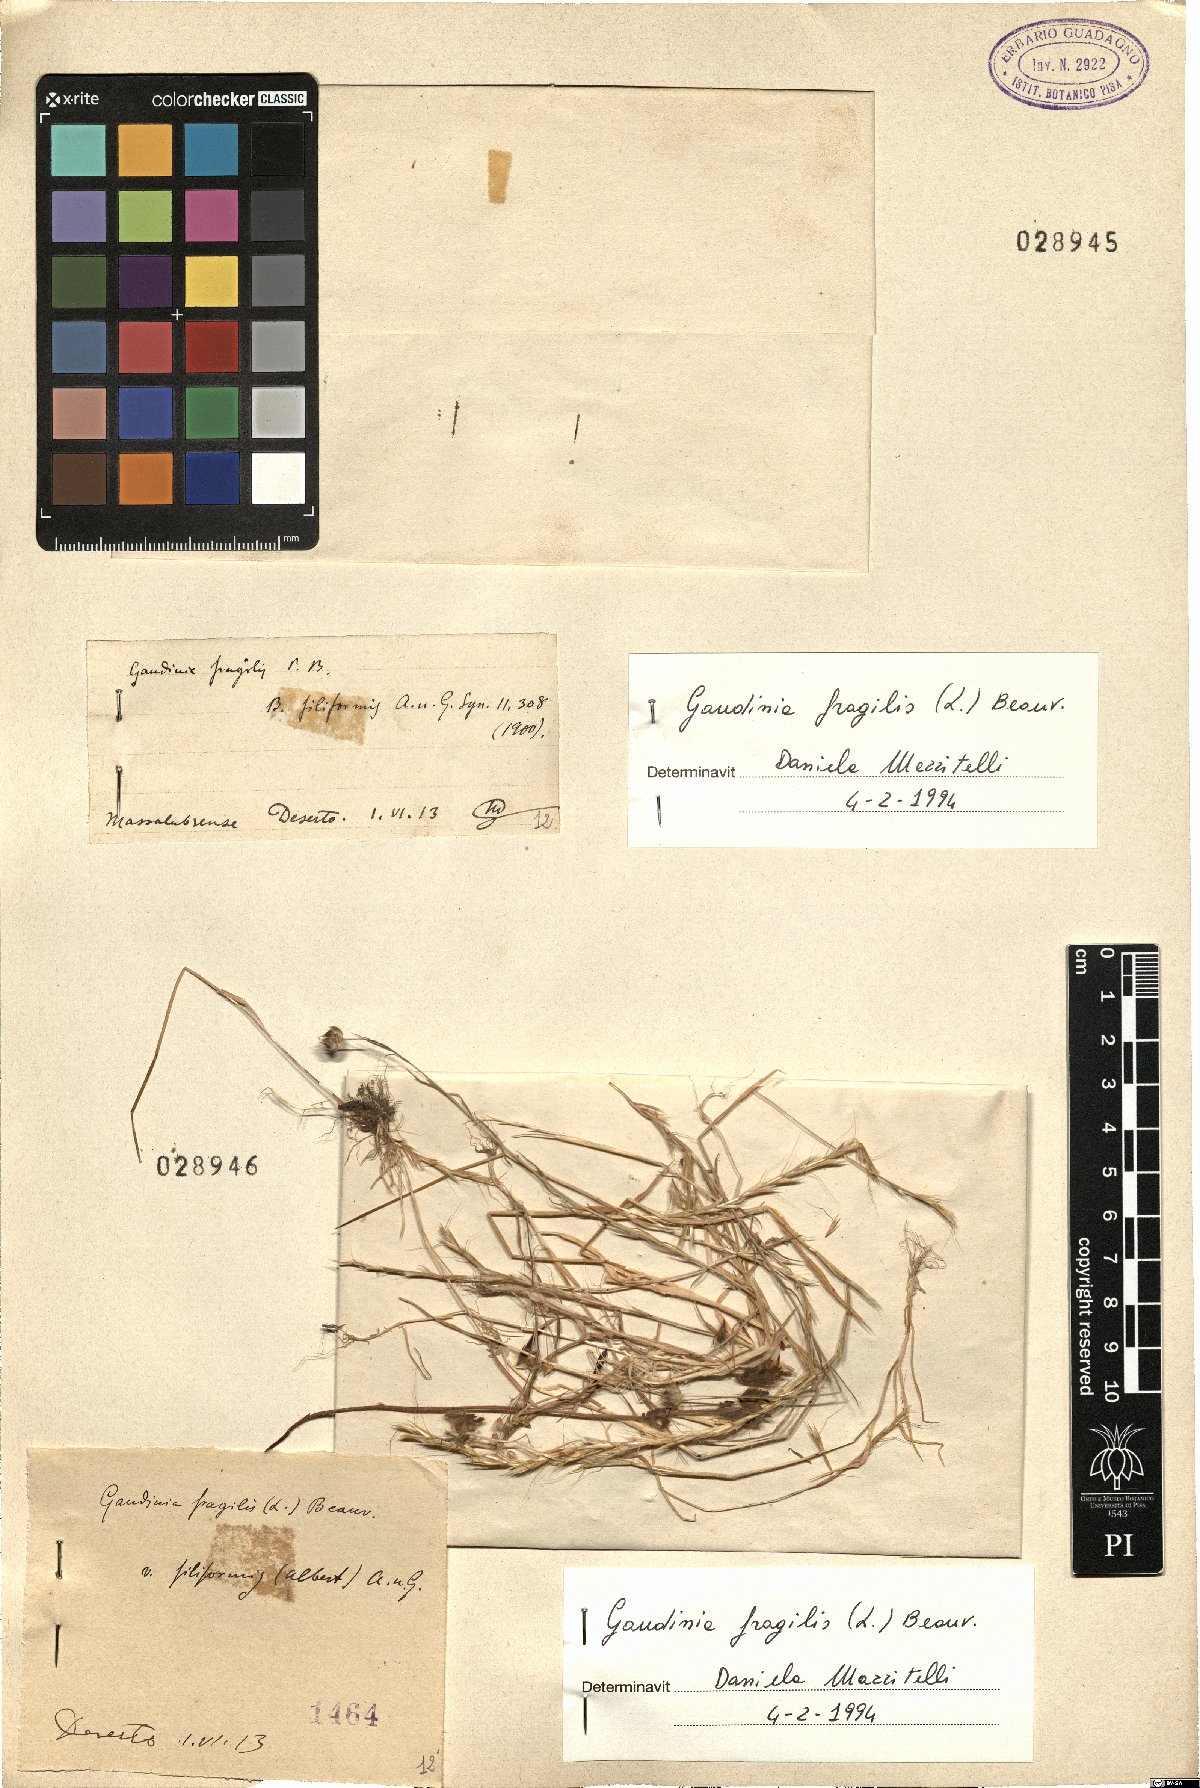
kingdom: Plantae
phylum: Tracheophyta
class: Liliopsida
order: Poales
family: Poaceae
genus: Gaudinia
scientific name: Gaudinia fragilis
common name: French oat-grass
